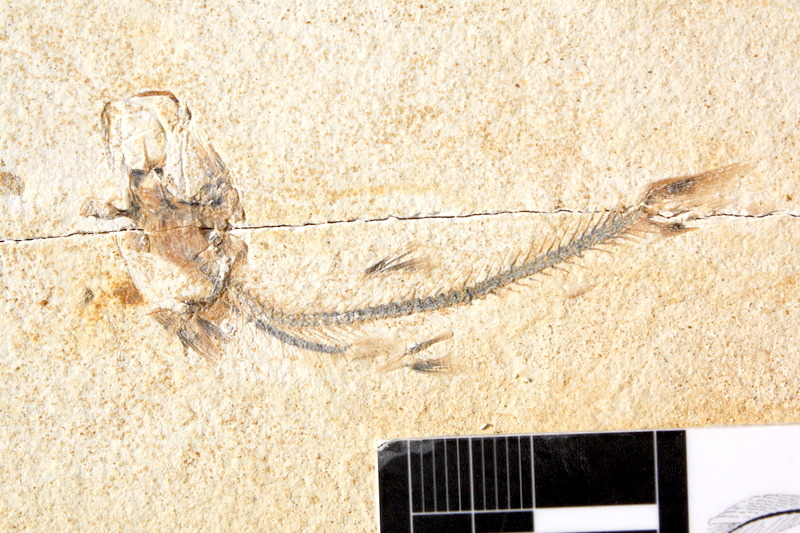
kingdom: Animalia
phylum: Chordata
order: Salmoniformes
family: Orthogonikleithridae
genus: Orthogonikleithrus
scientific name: Orthogonikleithrus hoelli
